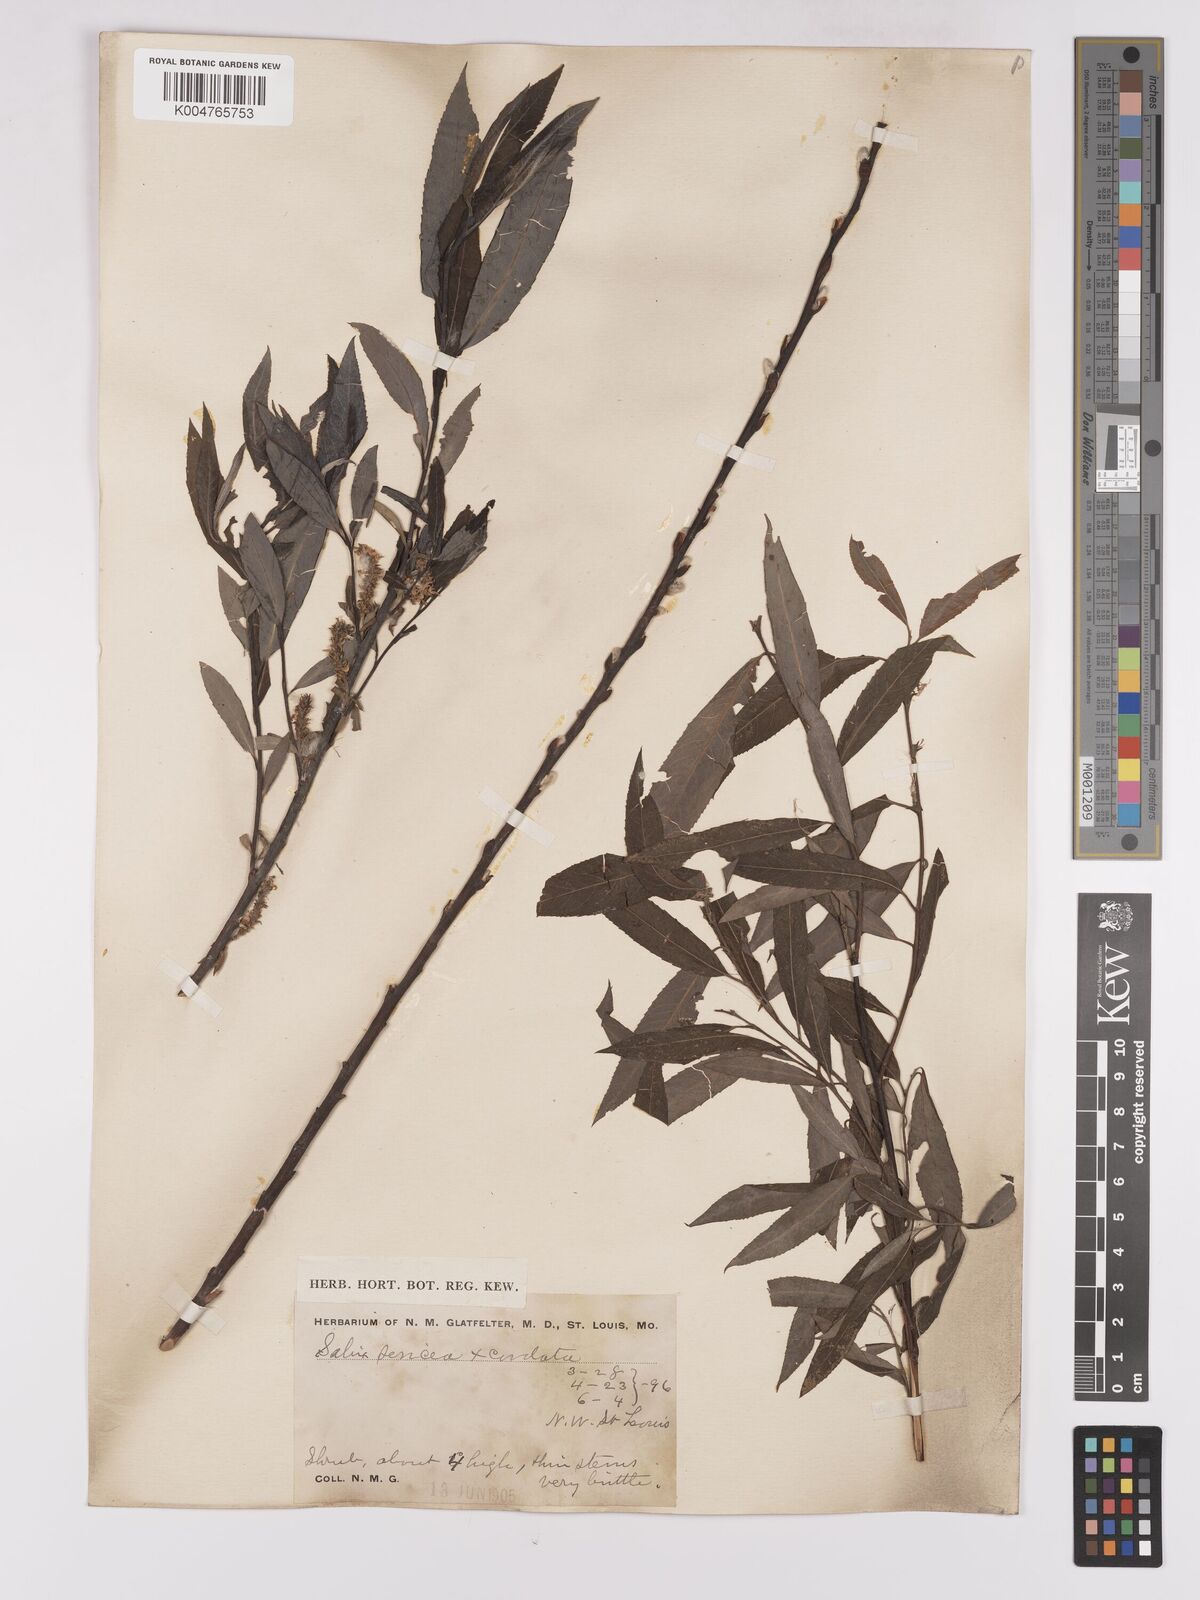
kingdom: Plantae
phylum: Tracheophyta
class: Magnoliopsida
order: Malpighiales
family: Salicaceae
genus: Salix
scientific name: Salix cordata
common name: Heart-leaf willow
